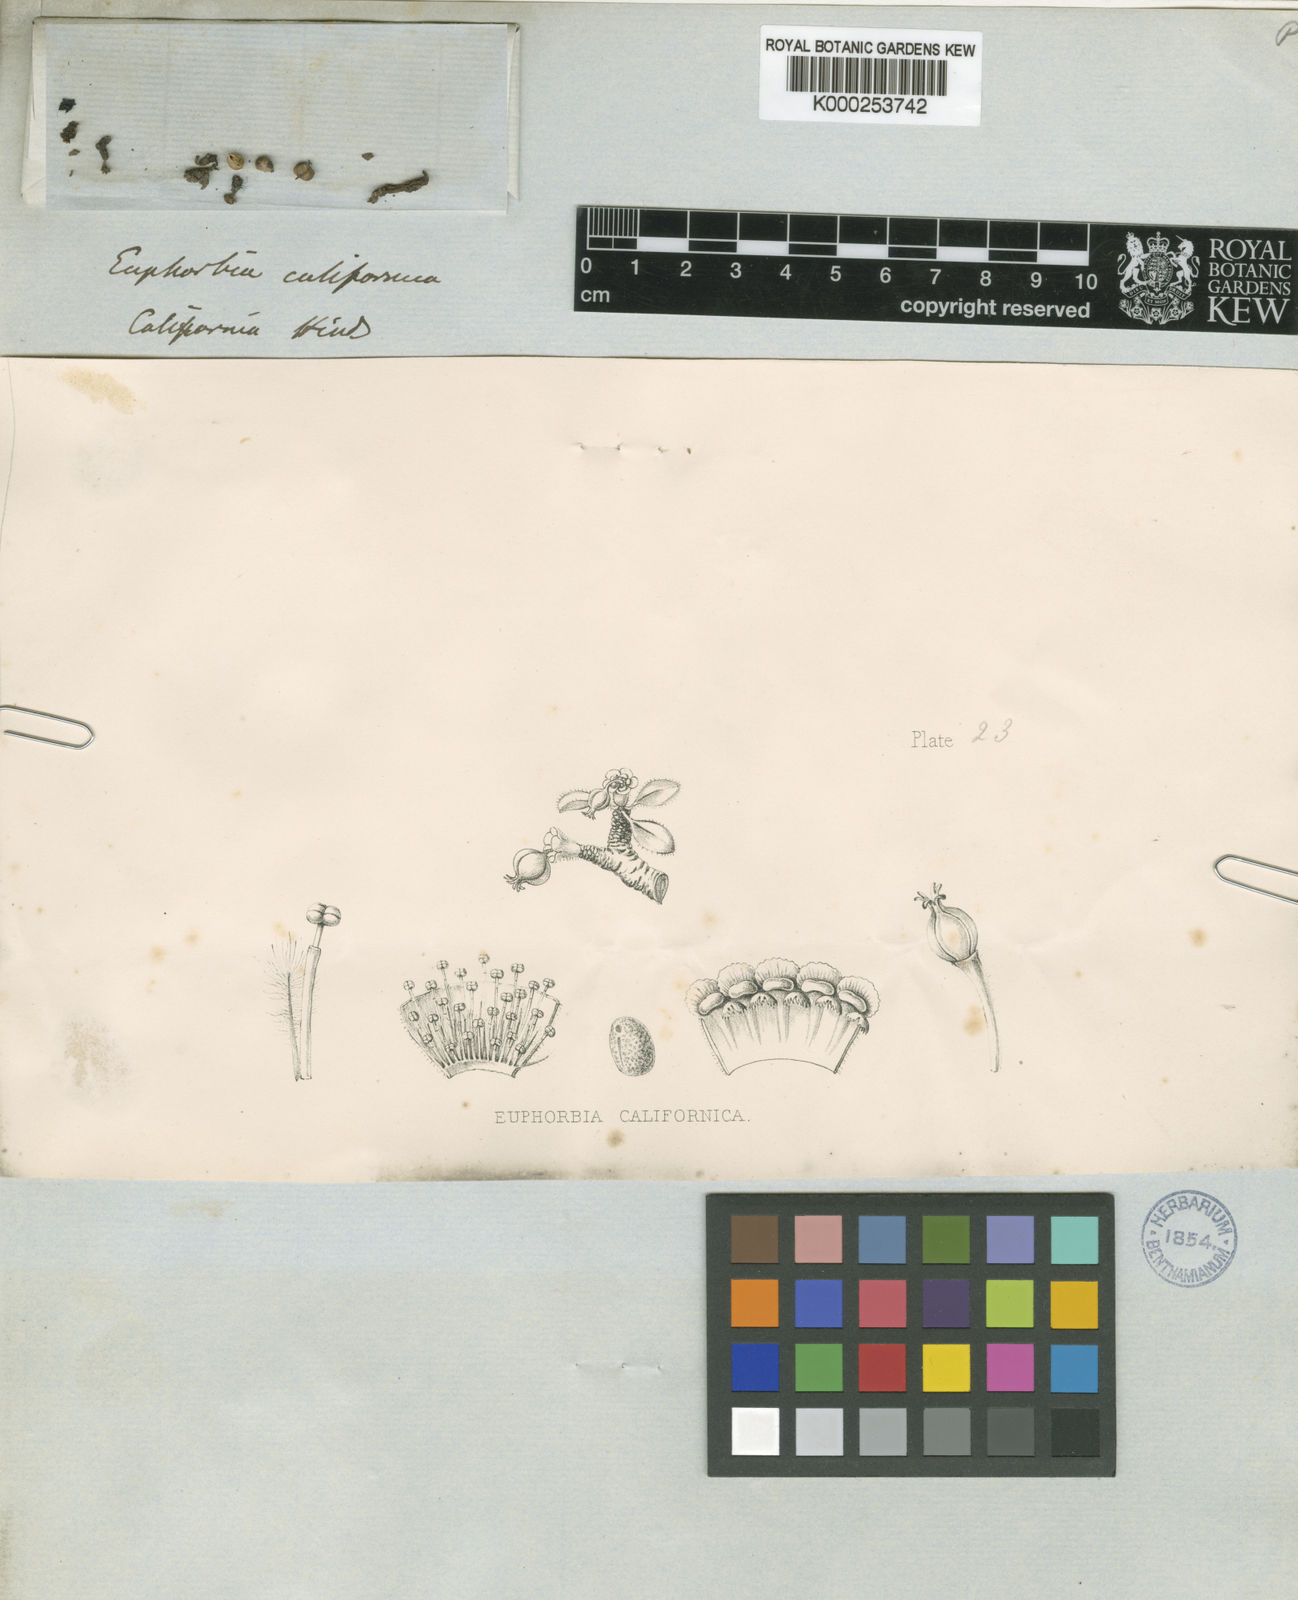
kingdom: Plantae
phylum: Tracheophyta
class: Magnoliopsida
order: Malpighiales
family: Euphorbiaceae
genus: Euphorbia
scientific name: Euphorbia californica
